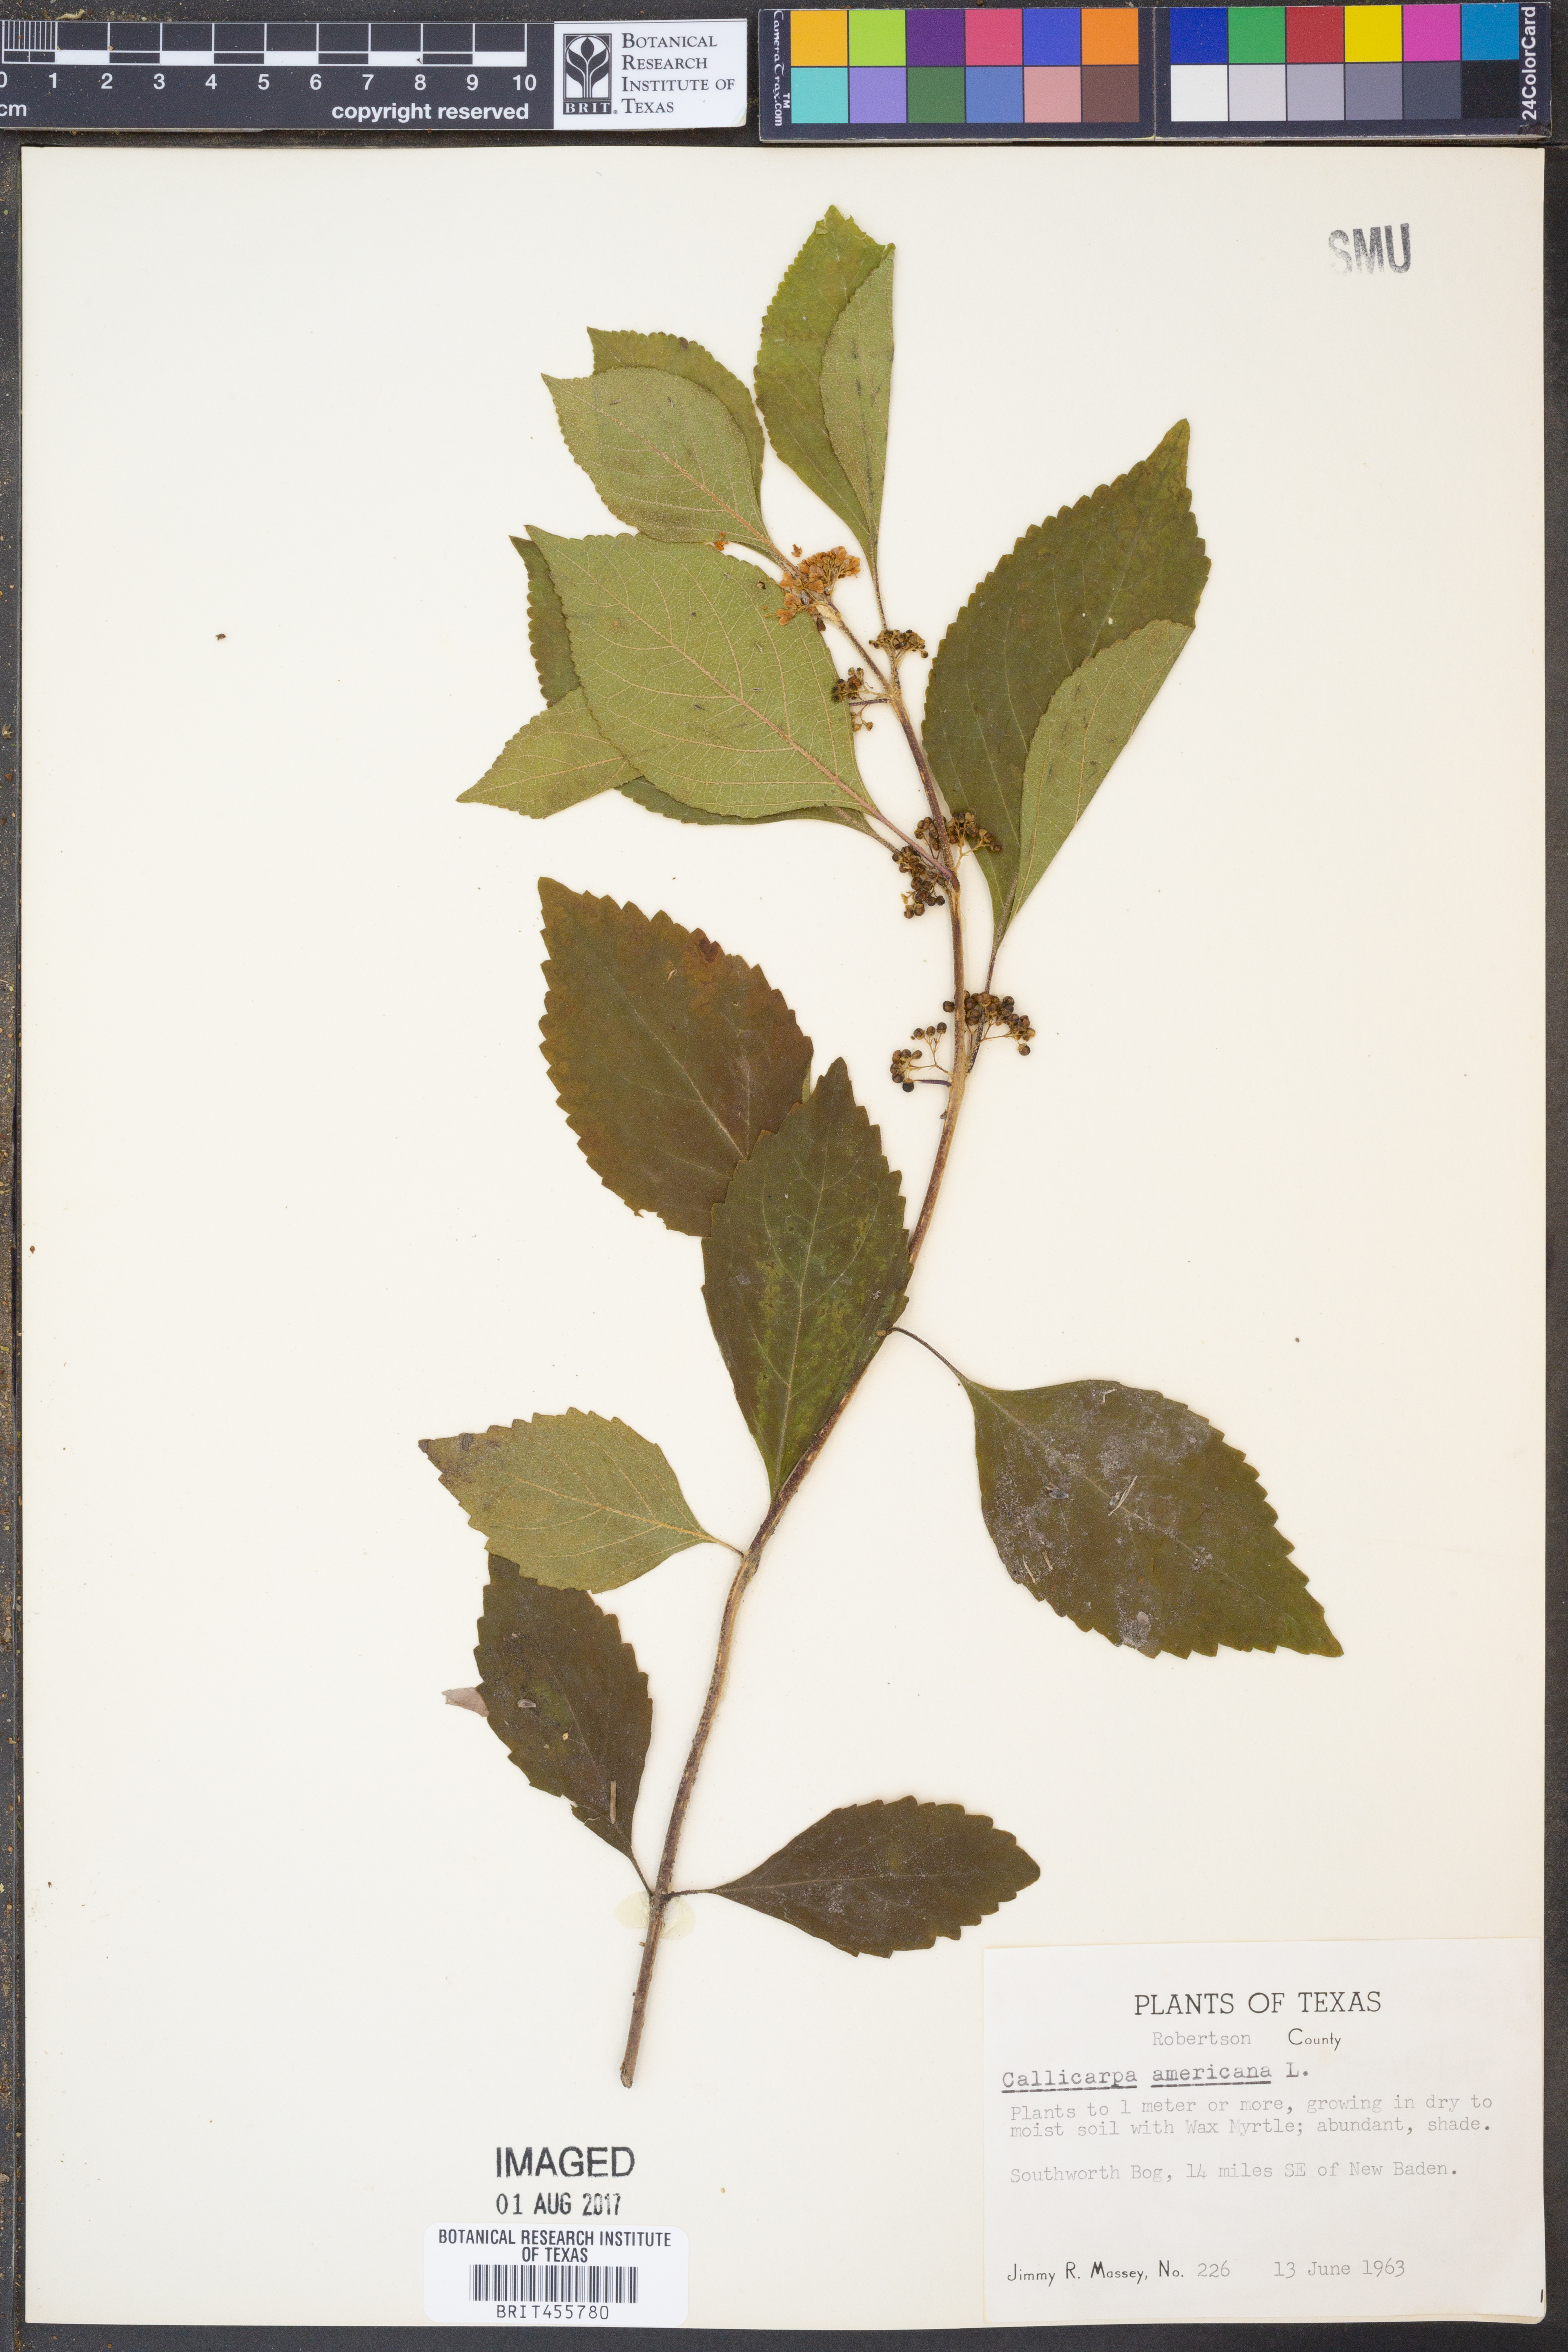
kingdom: Plantae
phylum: Tracheophyta
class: Magnoliopsida
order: Lamiales
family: Lamiaceae
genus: Callicarpa
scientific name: Callicarpa americana
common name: American beautyberry
